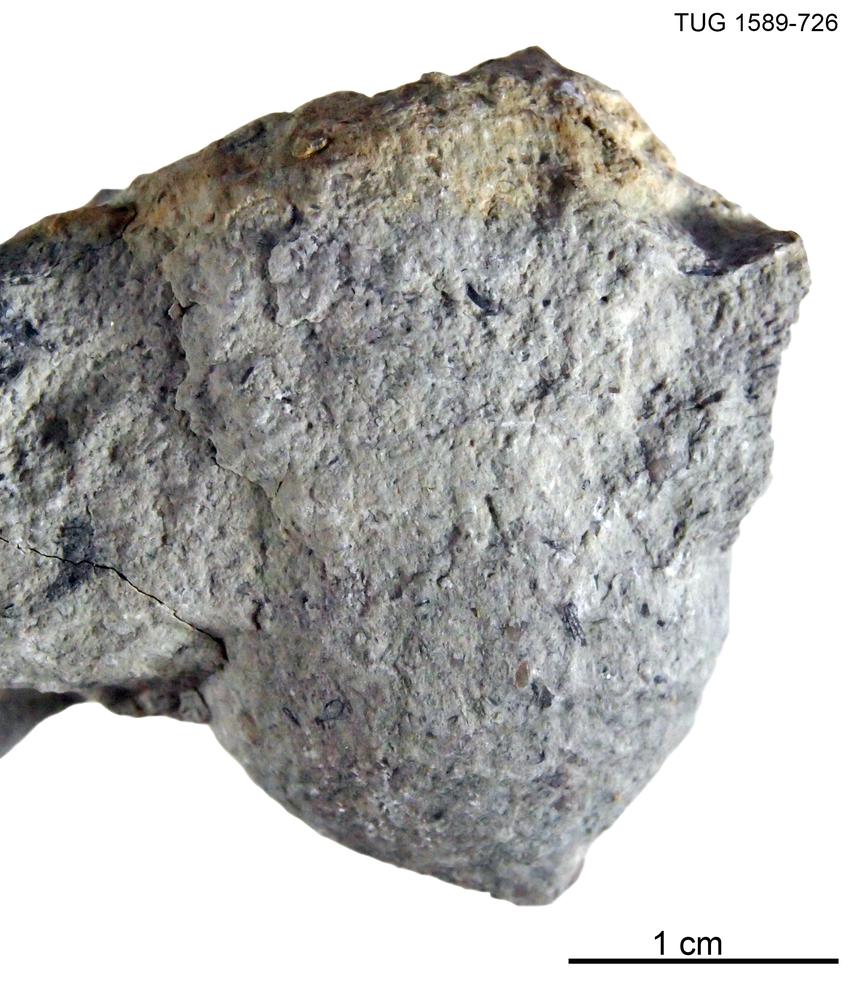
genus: Amphorichnus
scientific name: Amphorichnus
